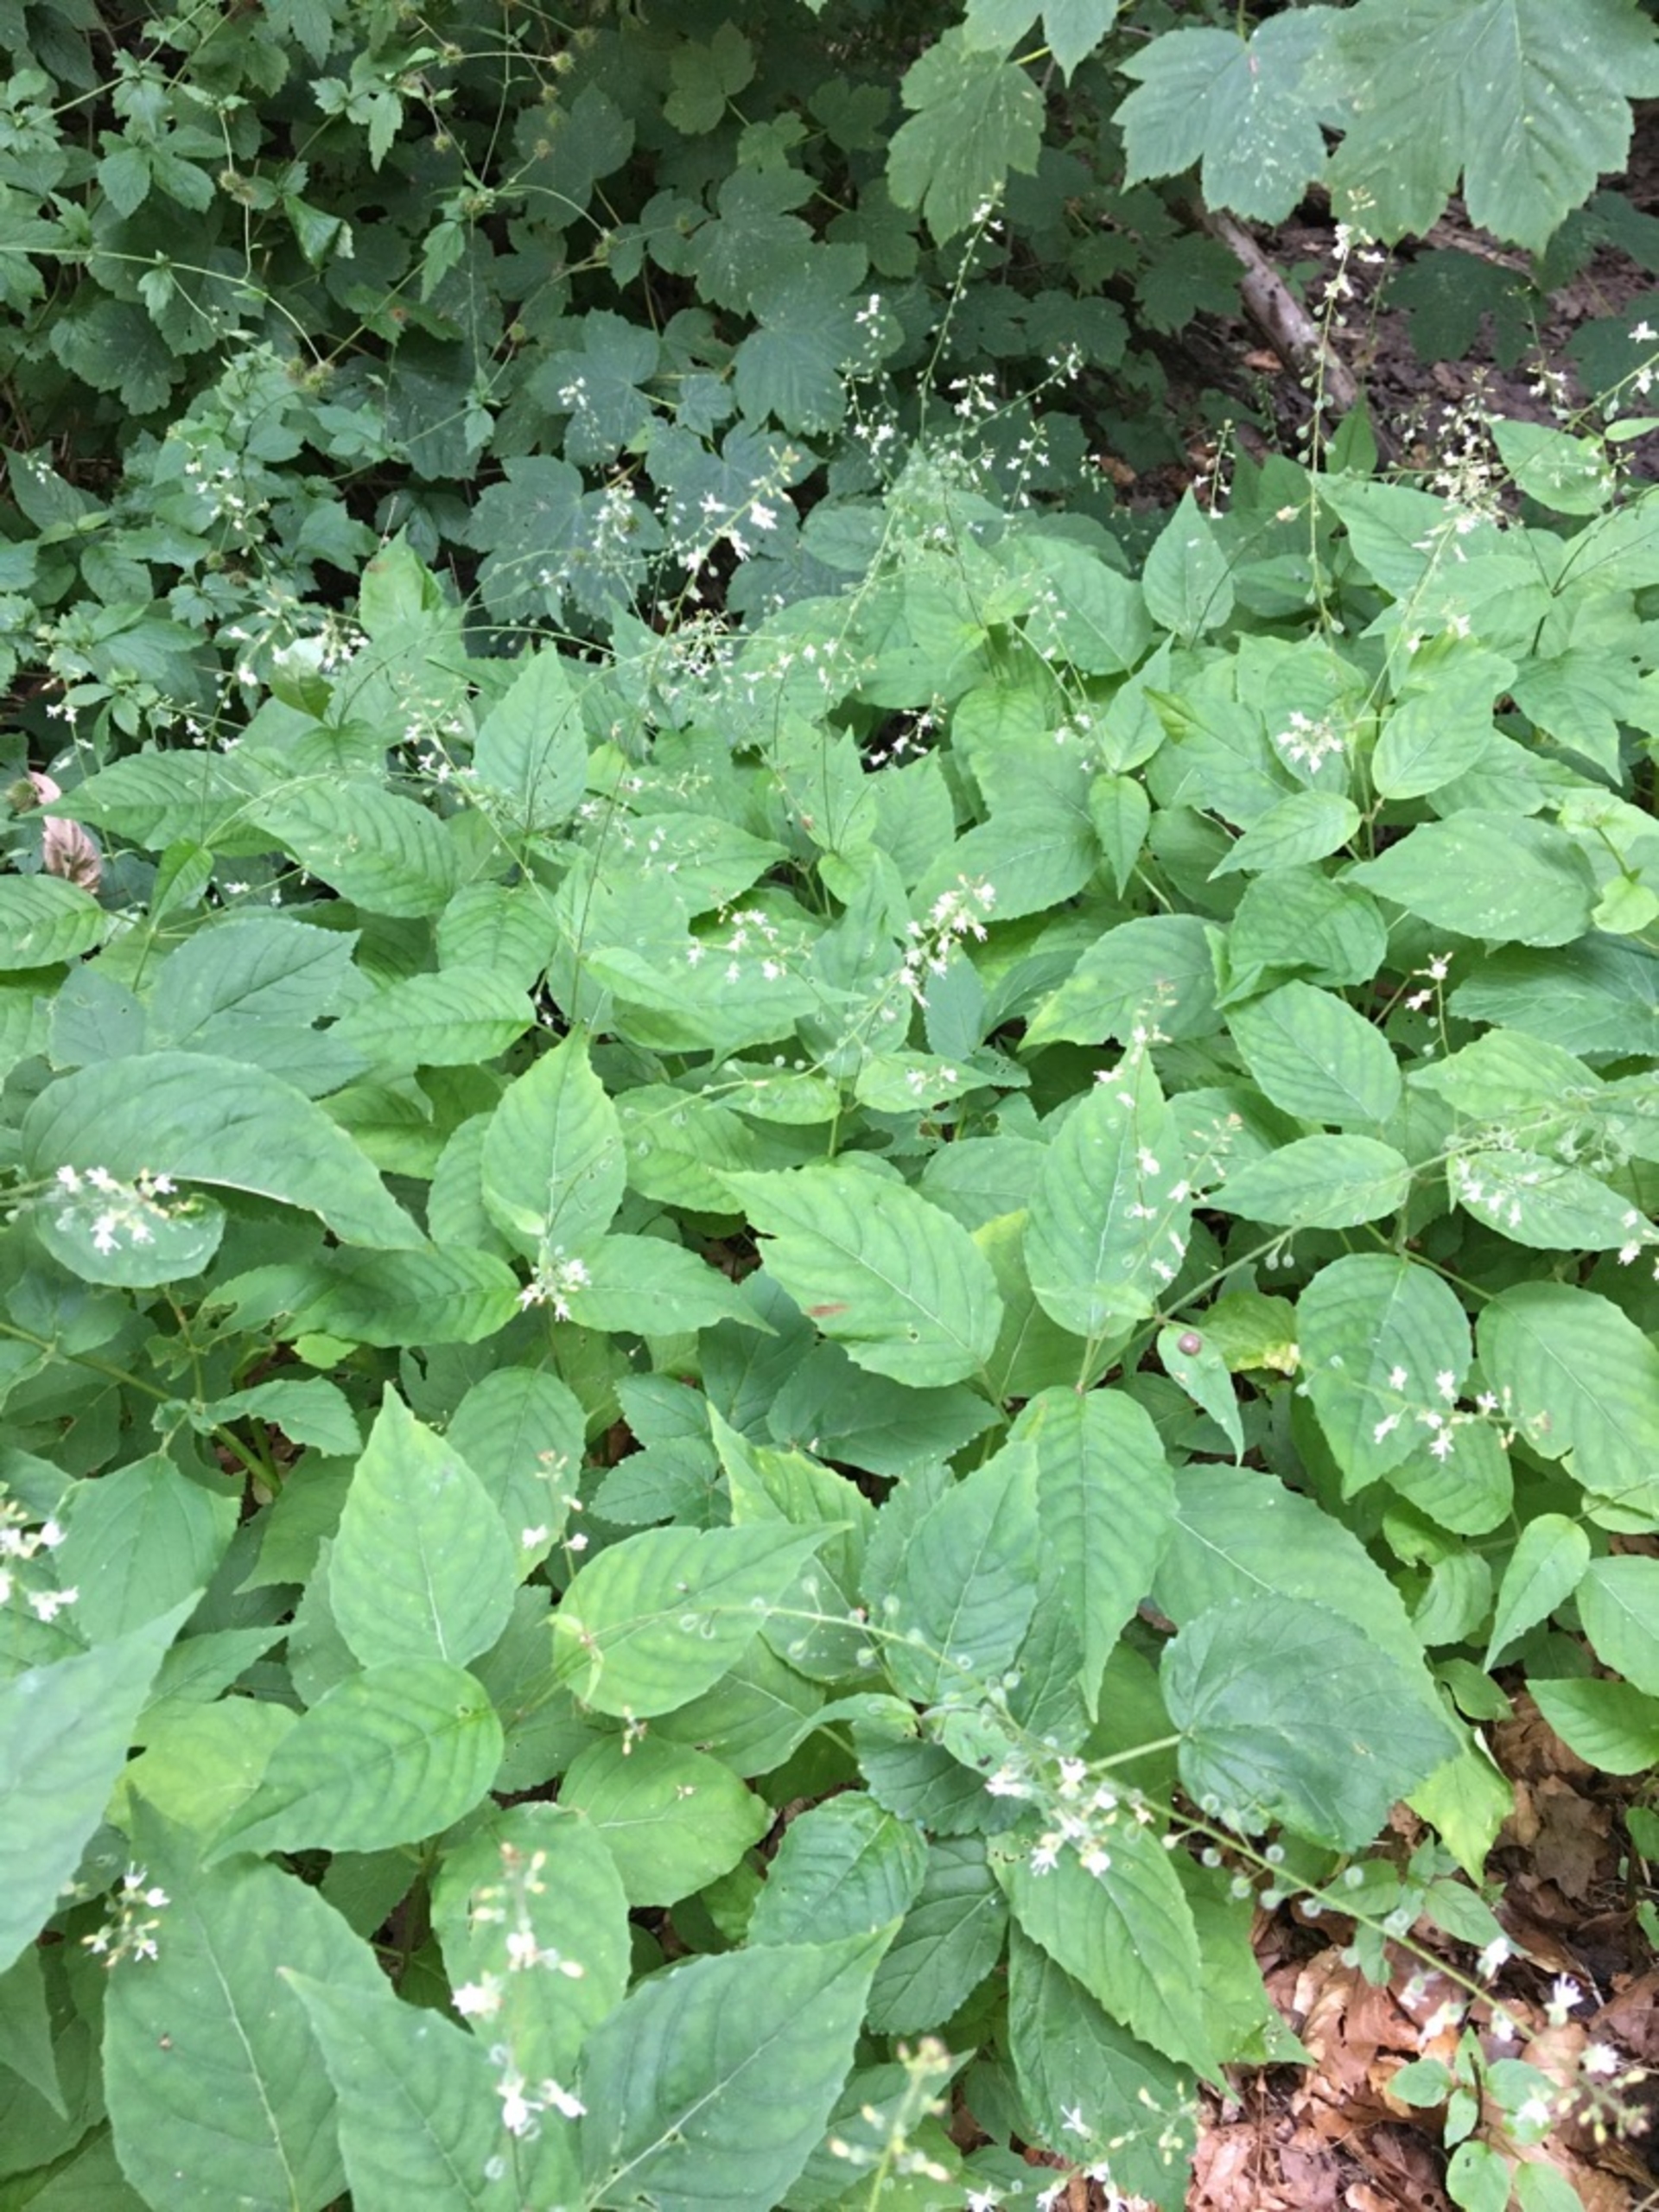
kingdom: Plantae
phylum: Tracheophyta
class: Magnoliopsida
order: Myrtales
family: Onagraceae
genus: Circaea
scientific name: Circaea lutetiana
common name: Dunet steffensurt
